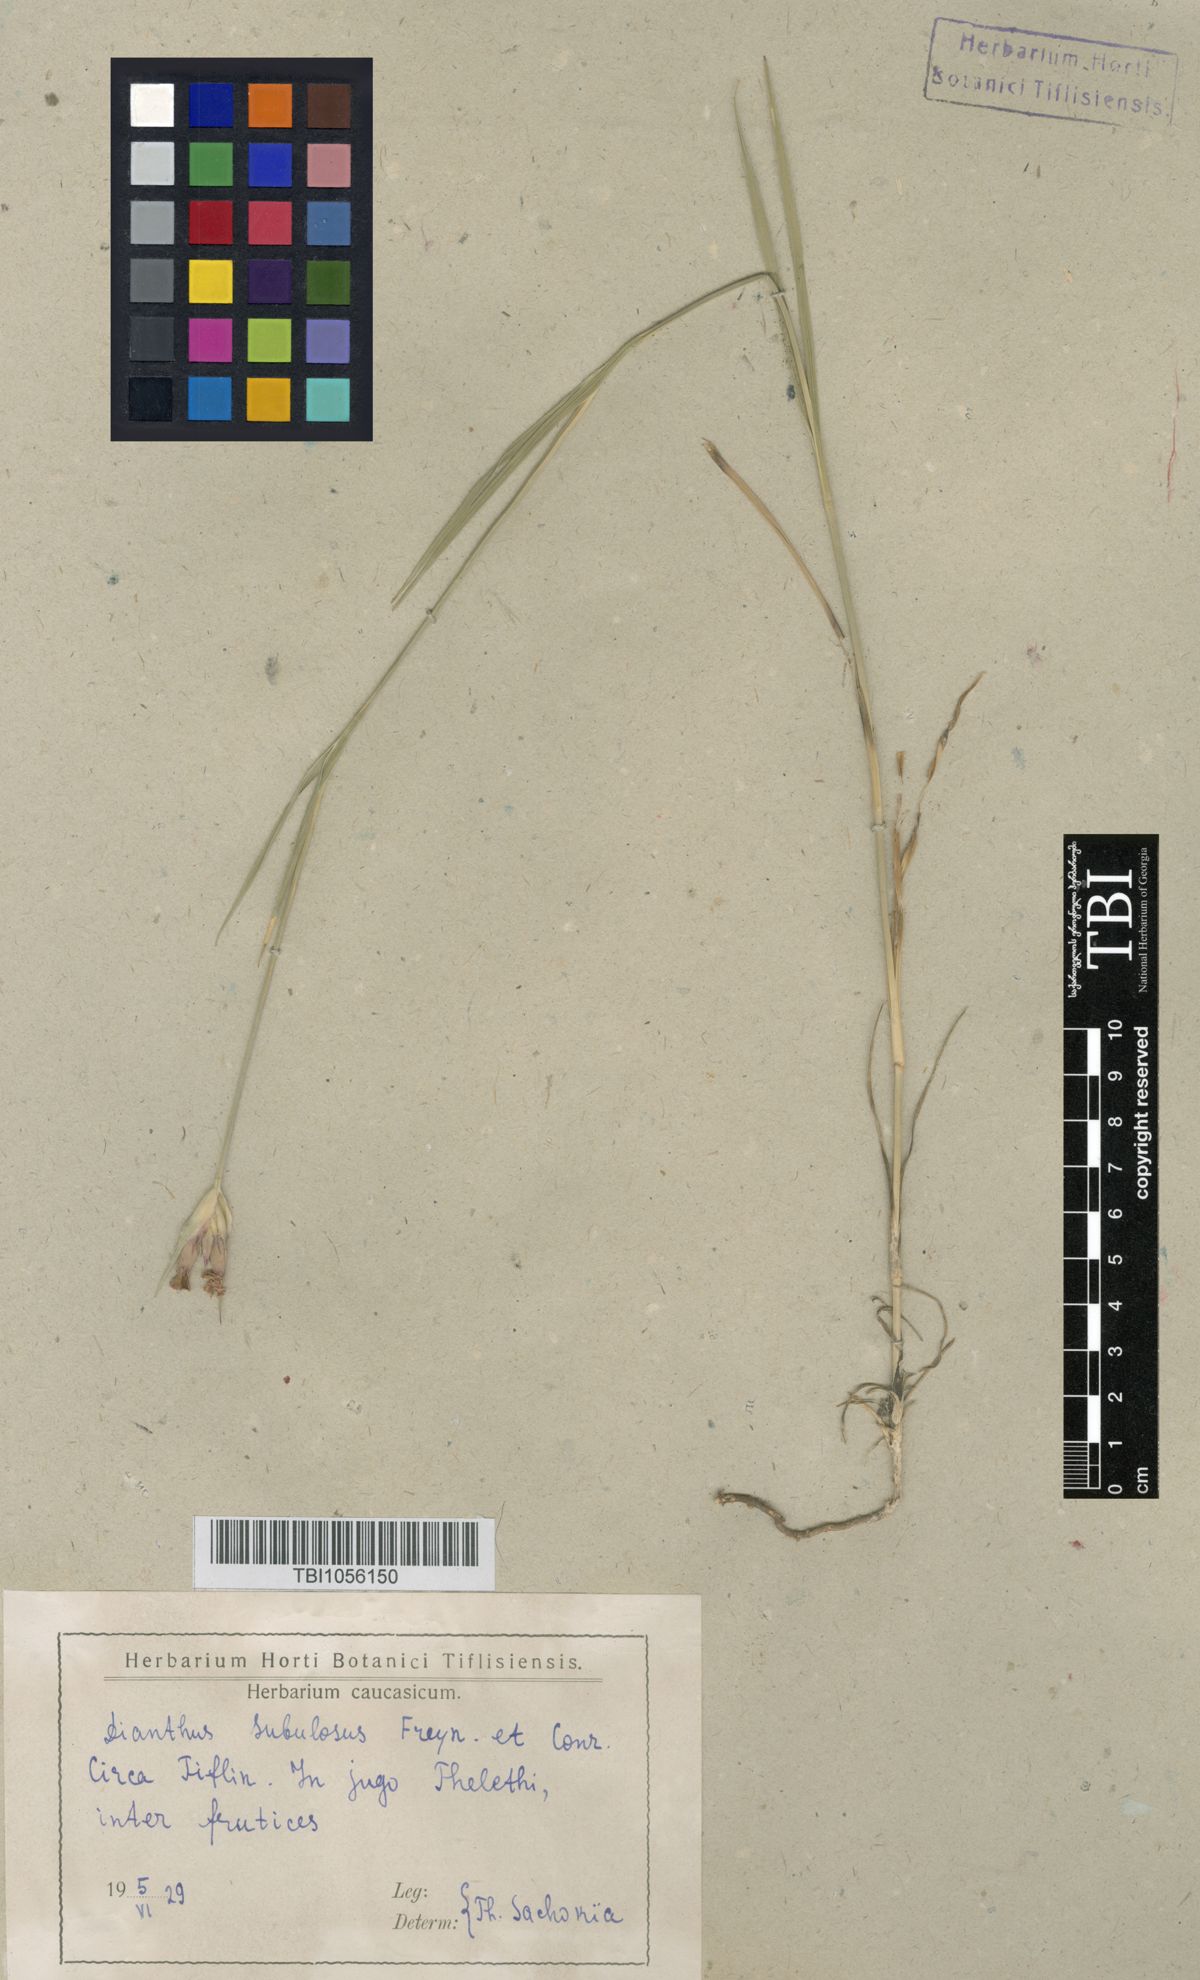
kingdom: Plantae
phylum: Tracheophyta
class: Magnoliopsida
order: Caryophyllales
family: Caryophyllaceae
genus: Dianthus
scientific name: Dianthus subulosus
